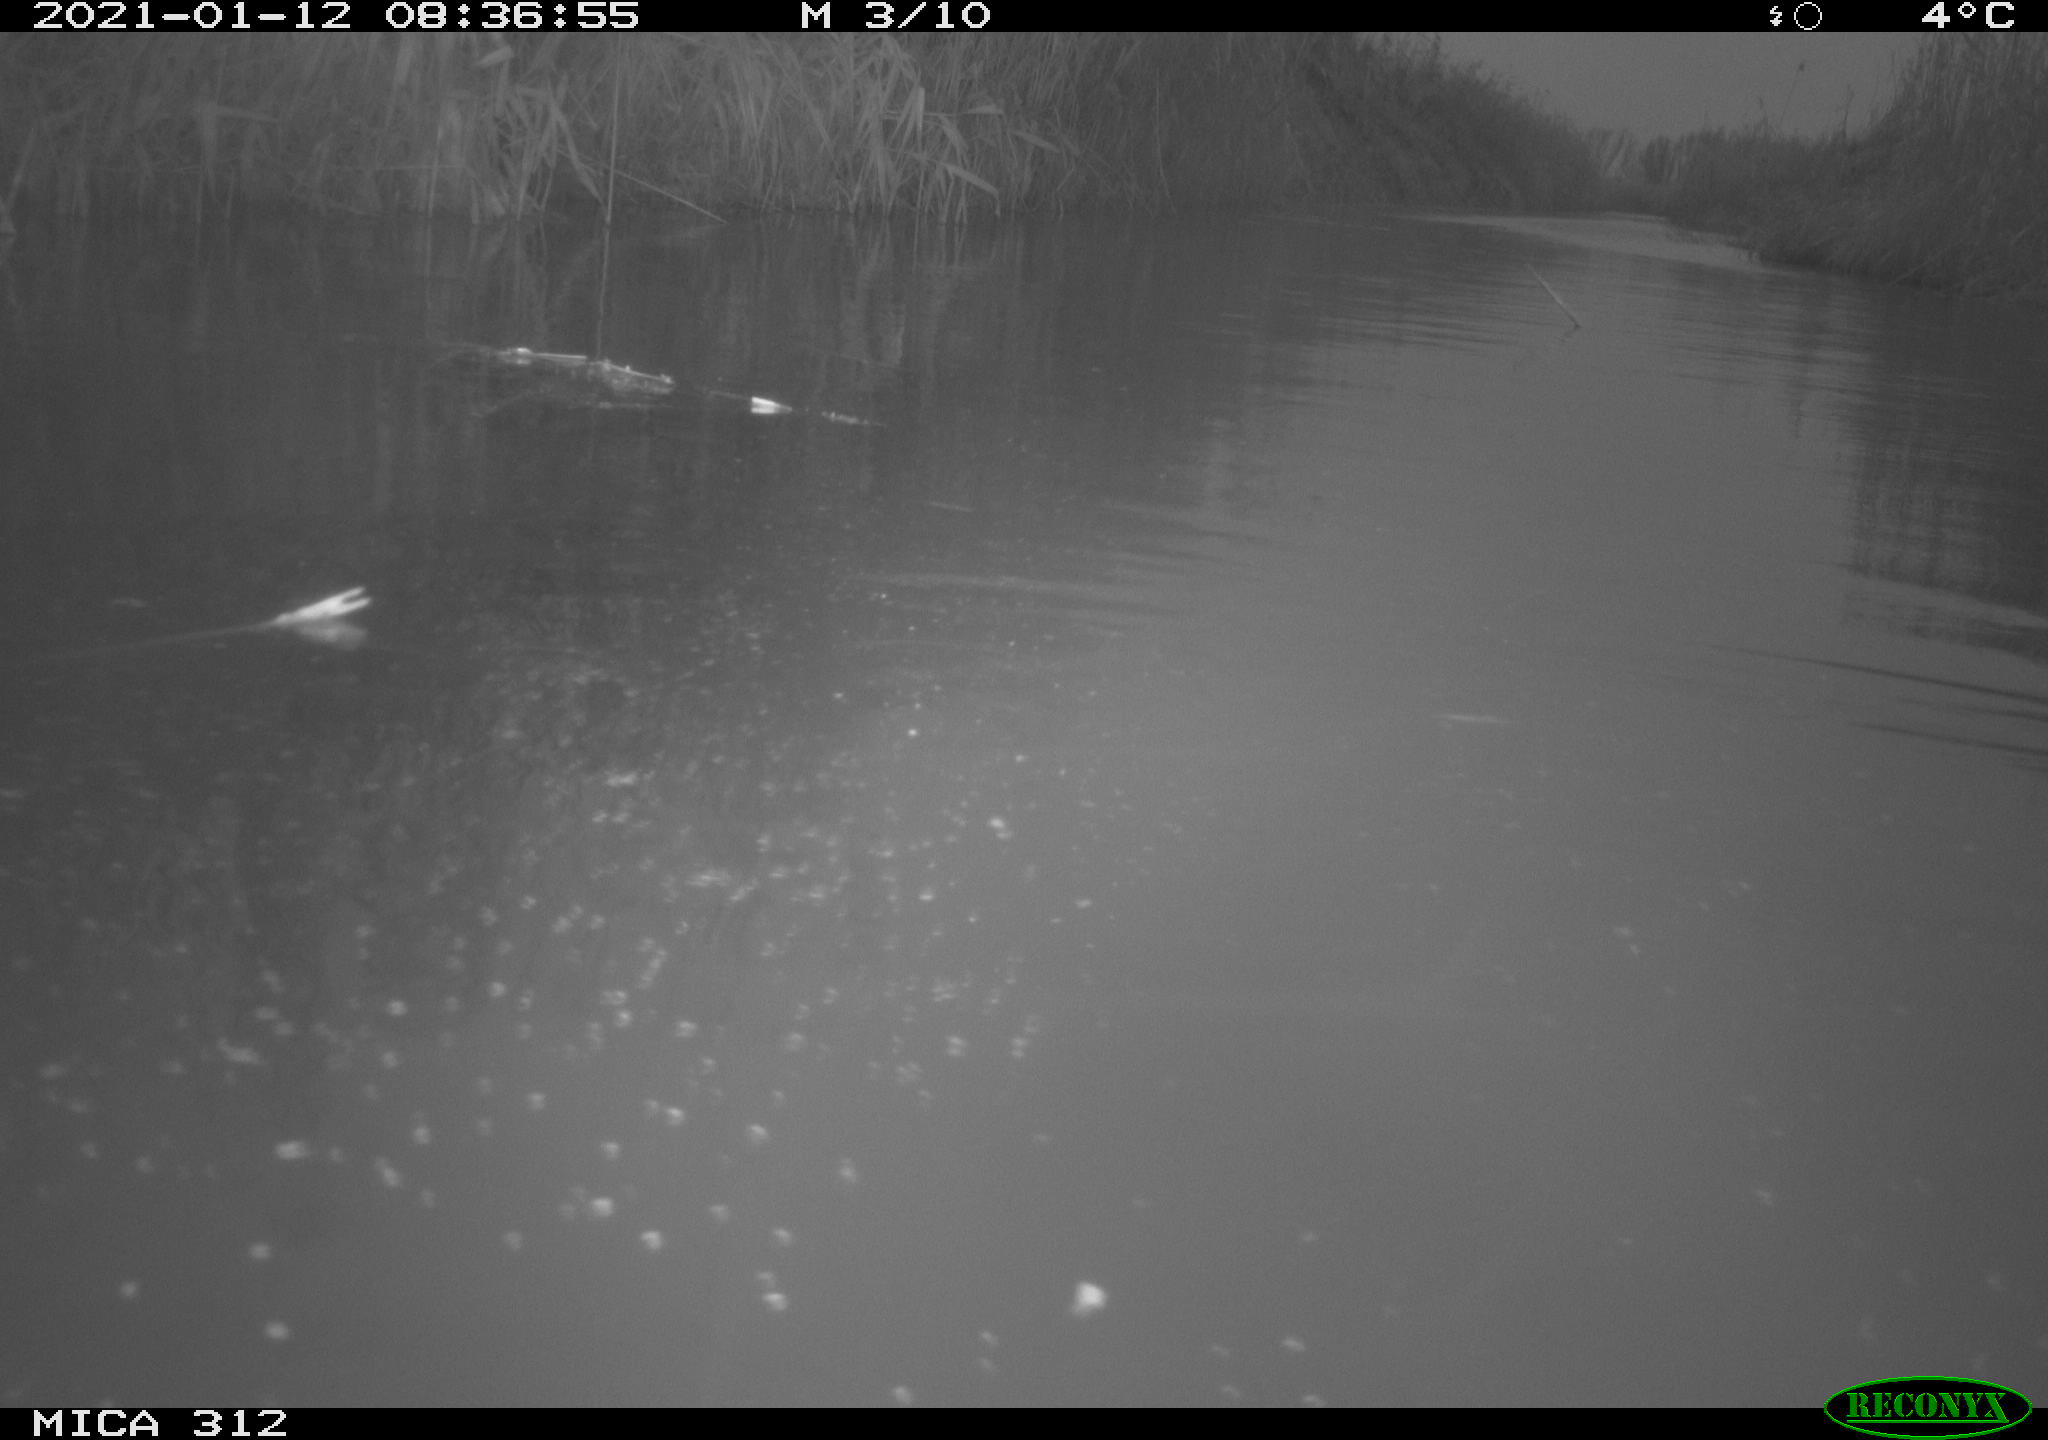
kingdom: Animalia
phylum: Chordata
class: Aves
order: Gruiformes
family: Rallidae
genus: Gallinula
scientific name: Gallinula chloropus
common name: Common moorhen
